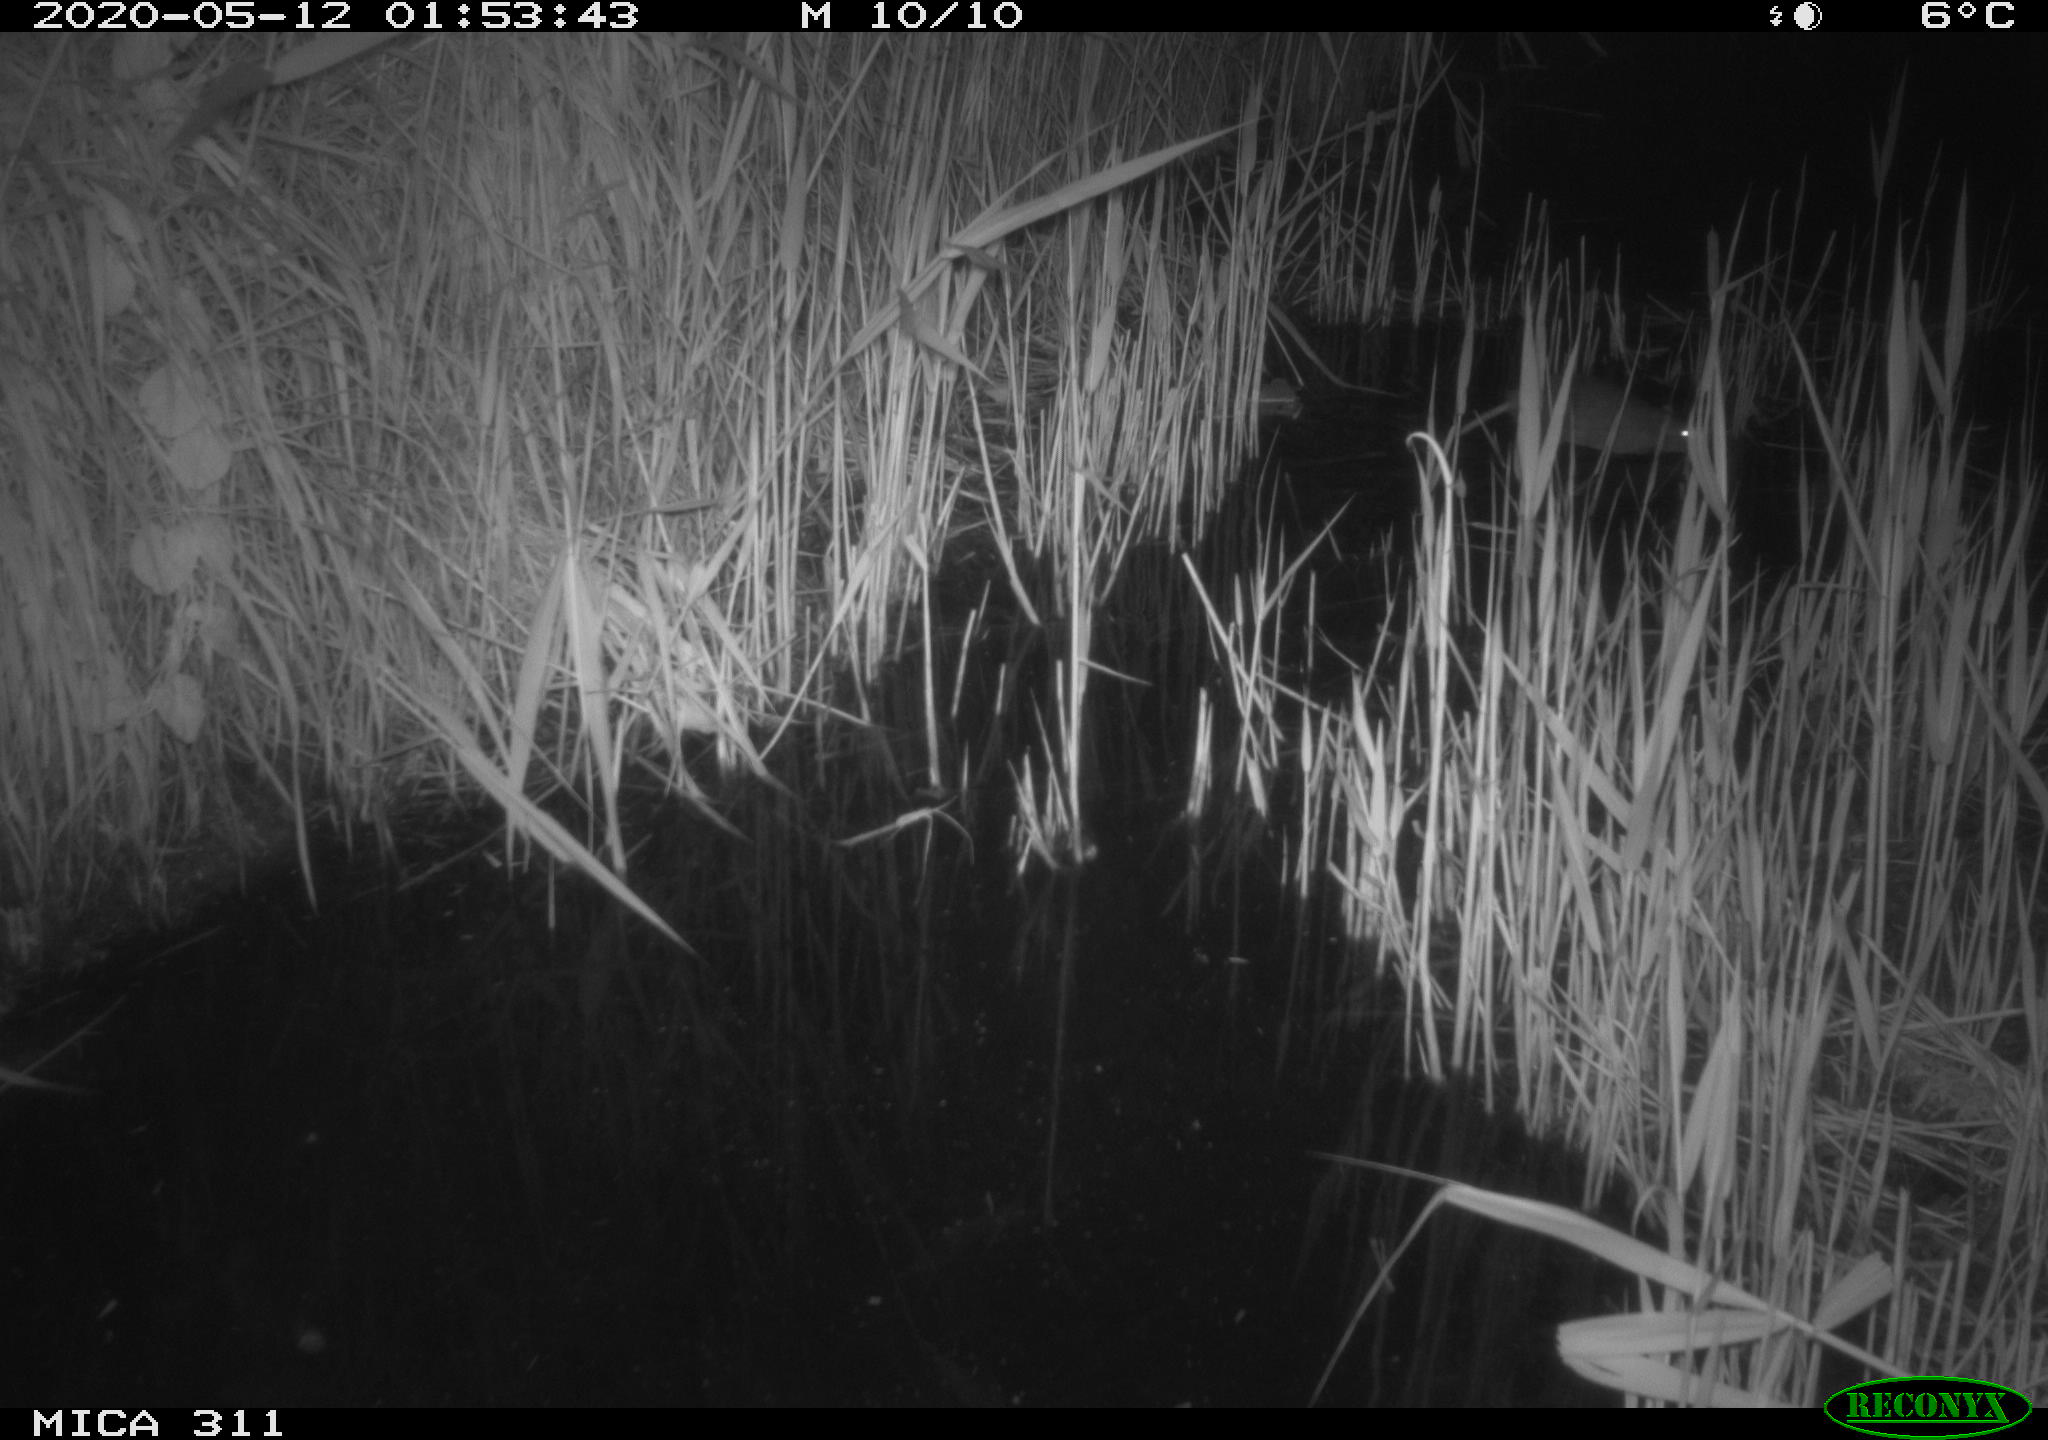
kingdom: Animalia
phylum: Chordata
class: Mammalia
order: Rodentia
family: Muridae
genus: Rattus
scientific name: Rattus norvegicus
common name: Brown rat
